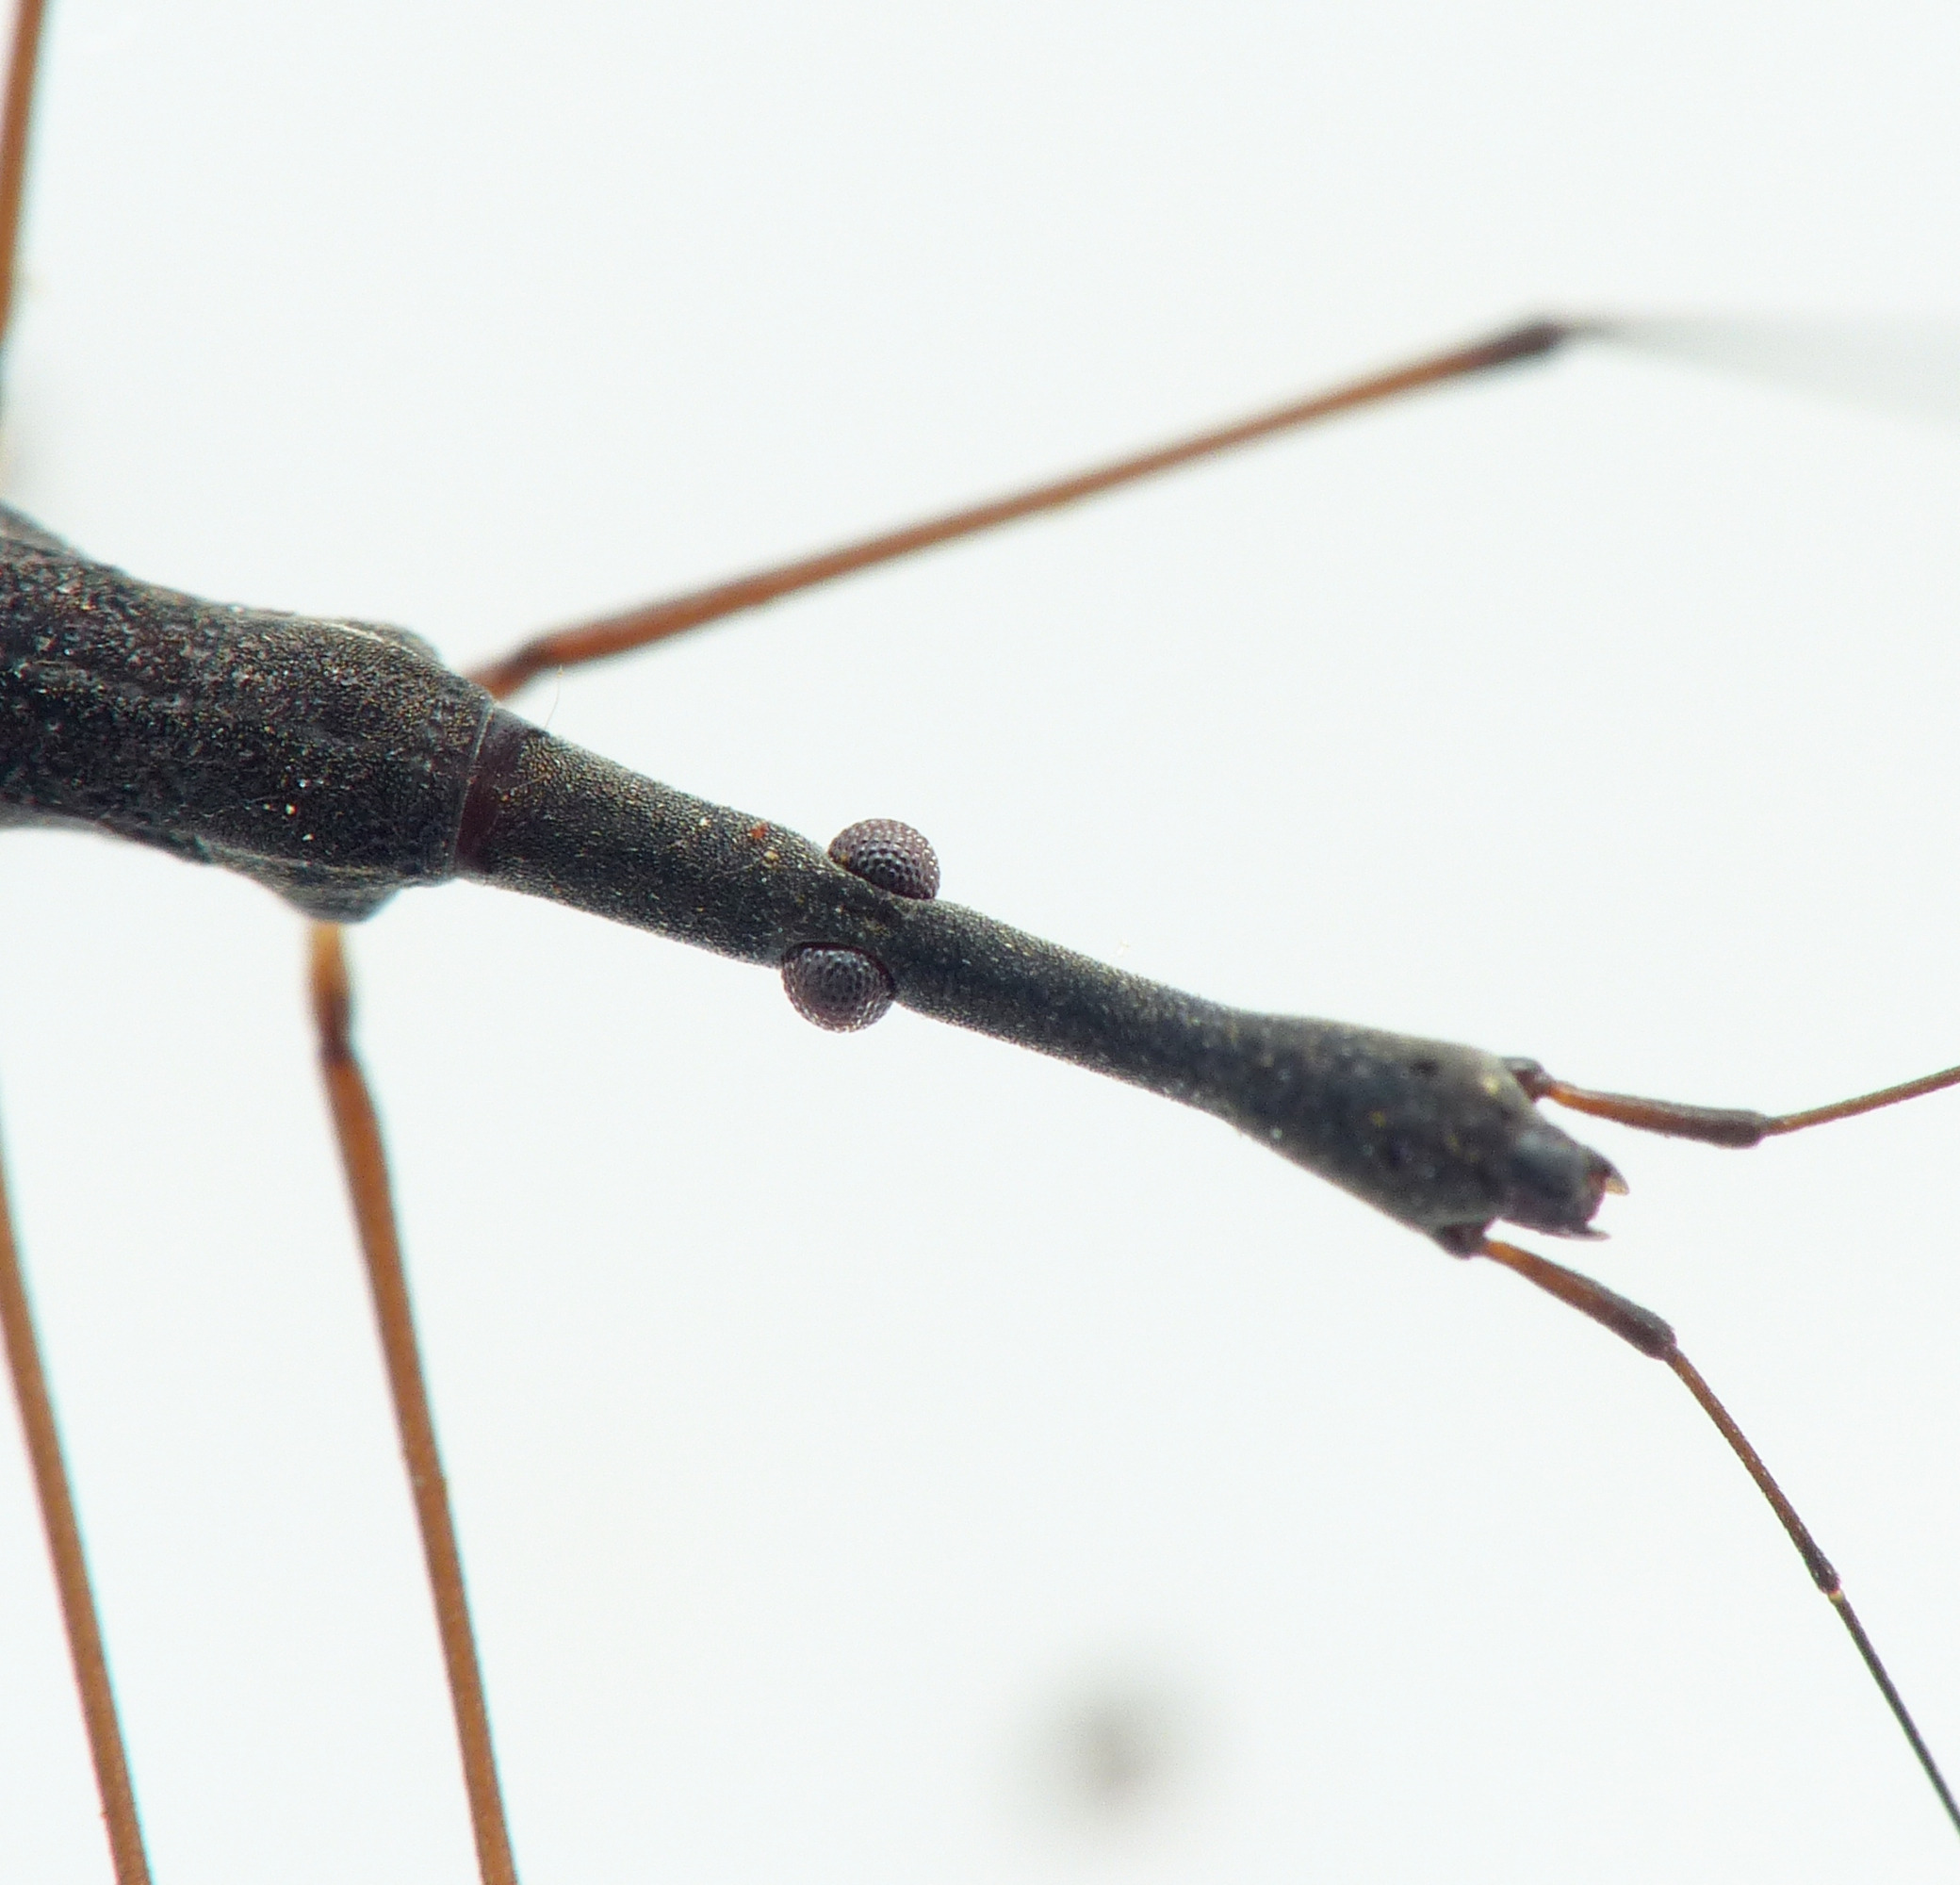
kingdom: Animalia
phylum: Arthropoda
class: Insecta
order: Hemiptera
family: Hydrometridae
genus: Hydrometra
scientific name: Hydrometra stagnorum
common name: Skrædder
